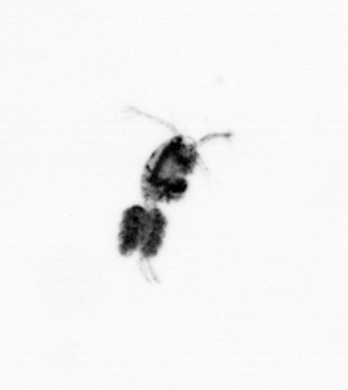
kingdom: Animalia
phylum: Arthropoda
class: Copepoda
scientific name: Copepoda
